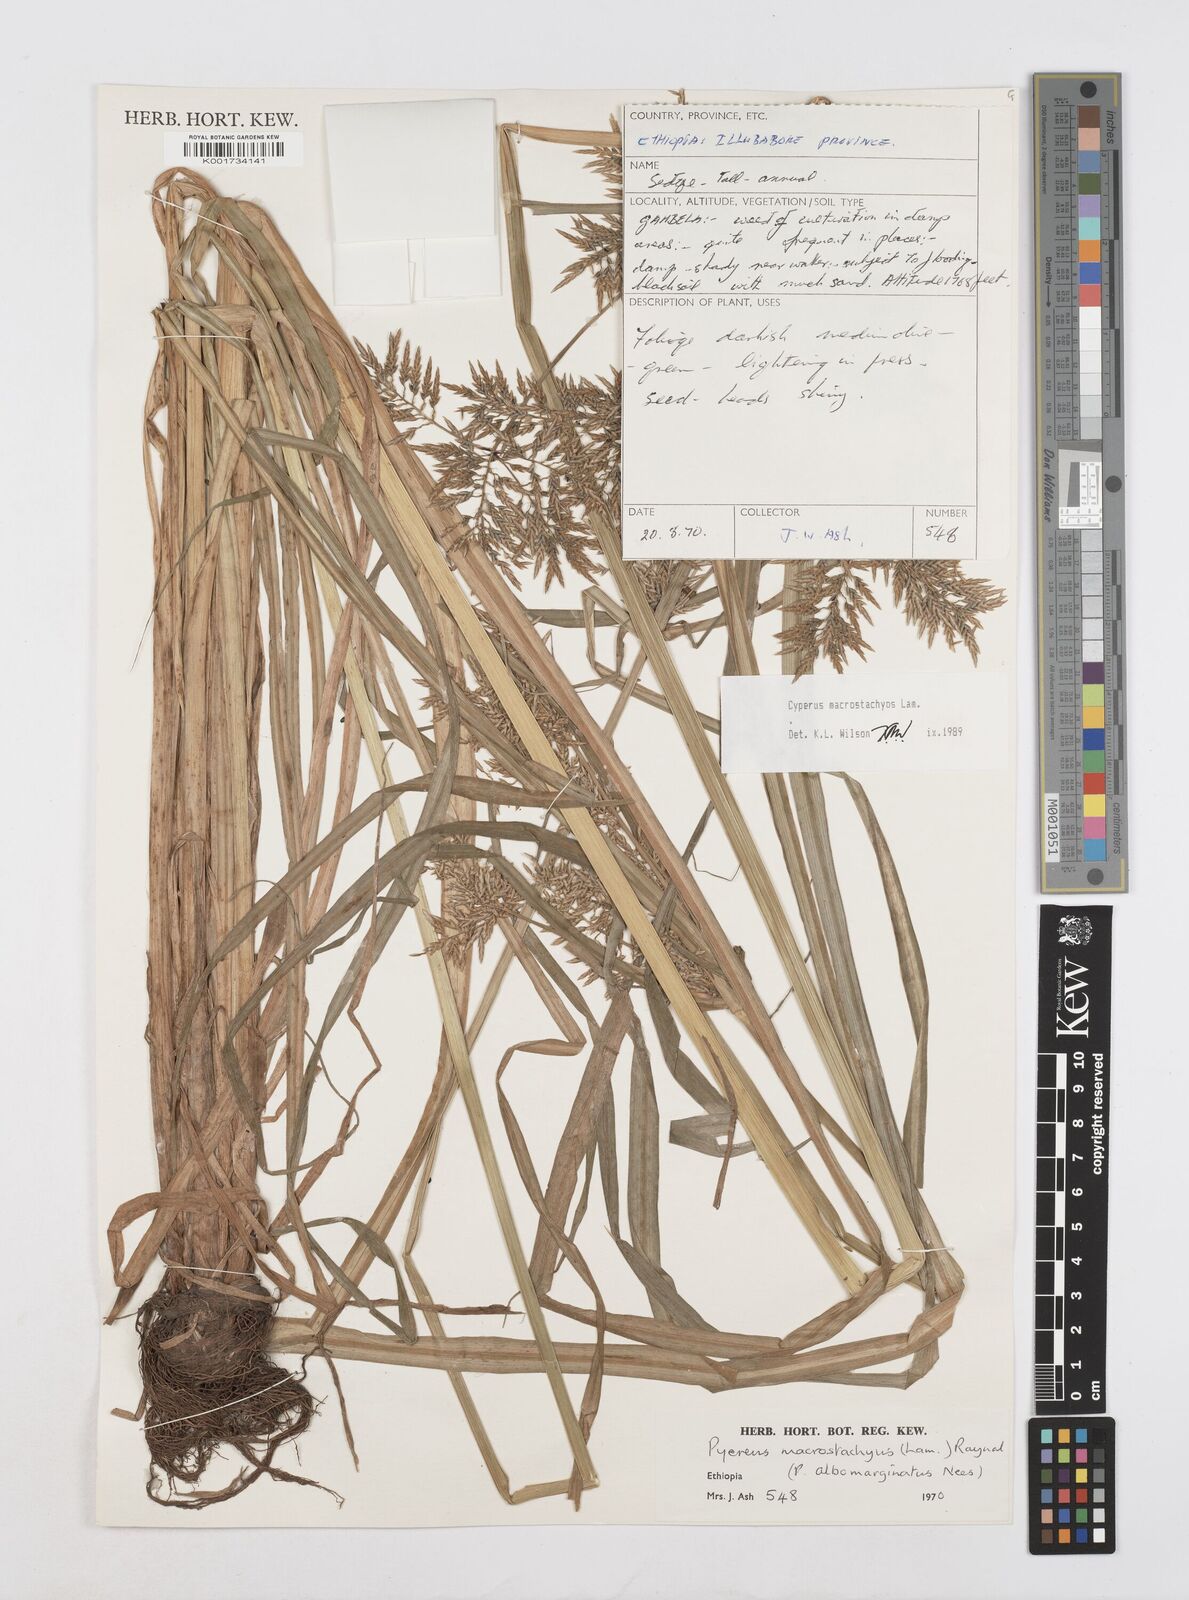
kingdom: Plantae
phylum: Tracheophyta
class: Liliopsida
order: Poales
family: Cyperaceae
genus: Cyperus
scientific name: Cyperus macrostachyos
